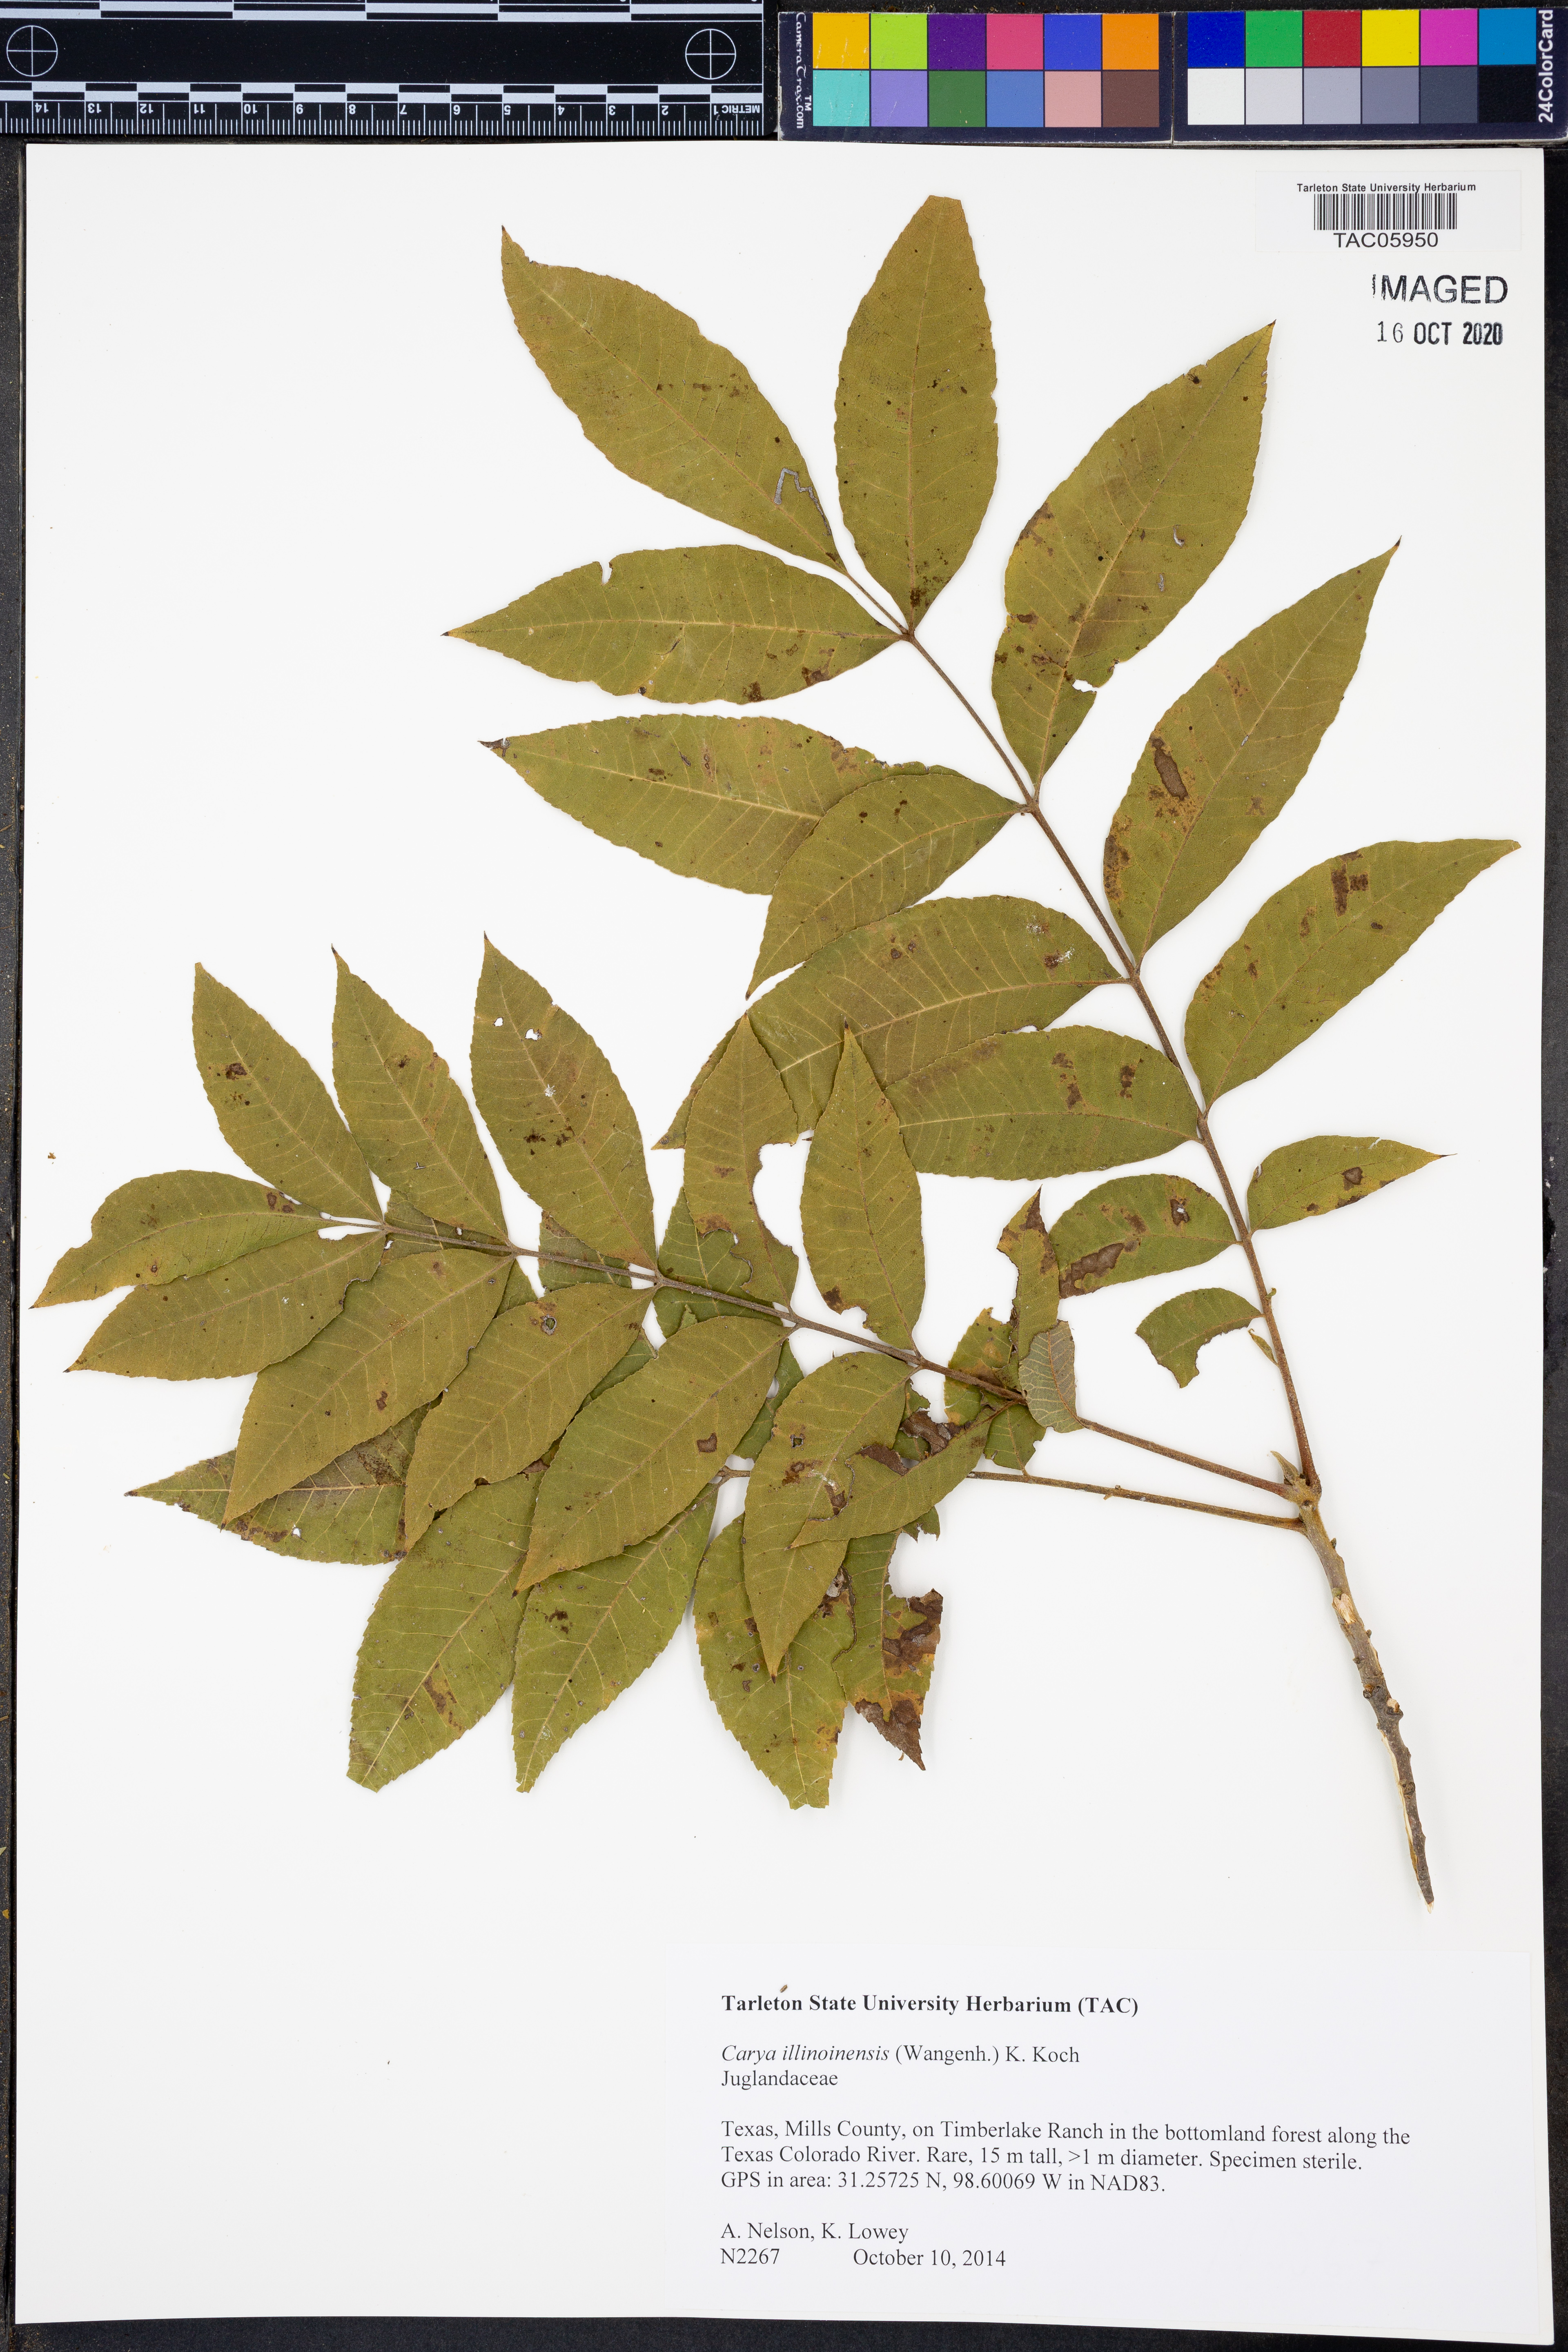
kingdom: Plantae
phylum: Tracheophyta
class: Magnoliopsida
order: Fagales
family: Juglandaceae
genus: Carya
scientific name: Carya illinoinensis
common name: Pecan
